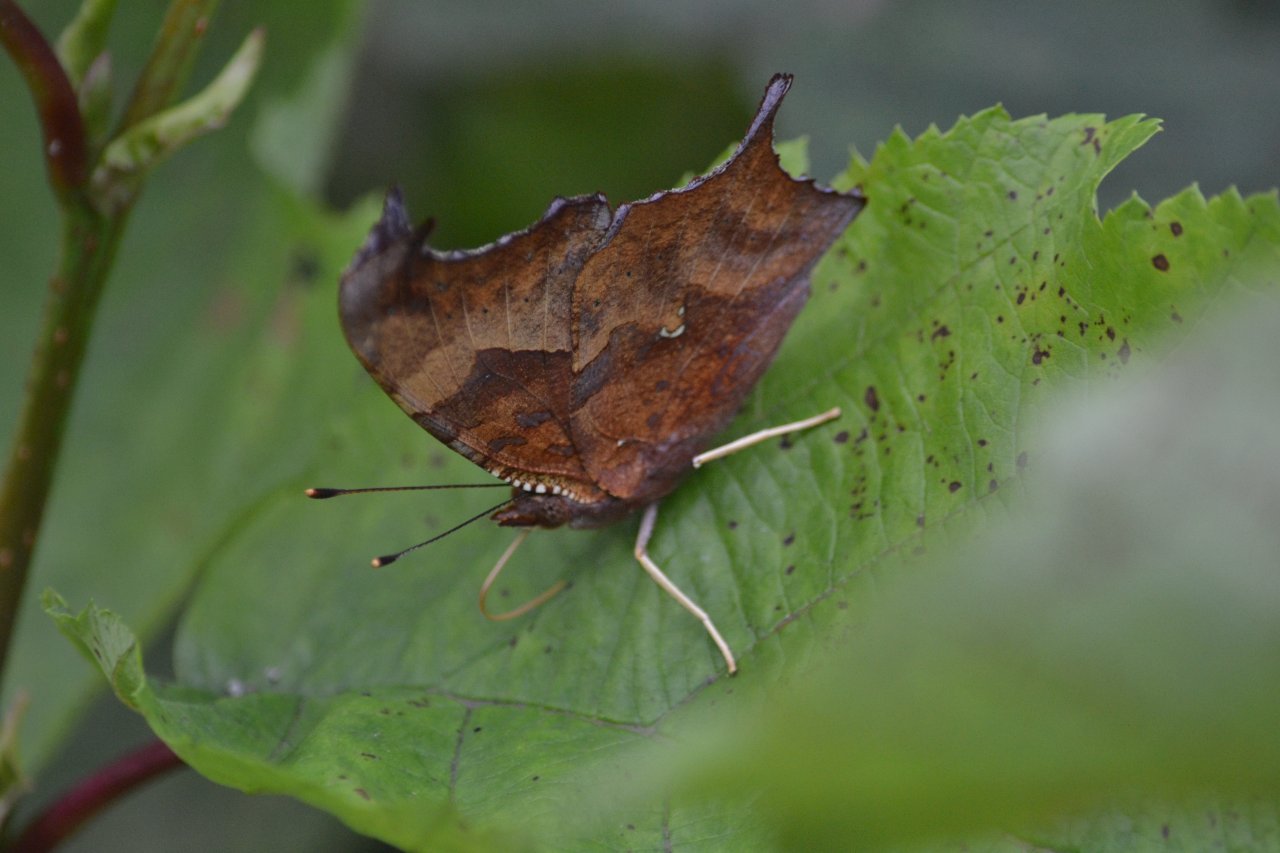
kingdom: Animalia
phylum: Arthropoda
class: Insecta
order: Lepidoptera
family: Nymphalidae
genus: Polygonia
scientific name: Polygonia interrogationis
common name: Question Mark
